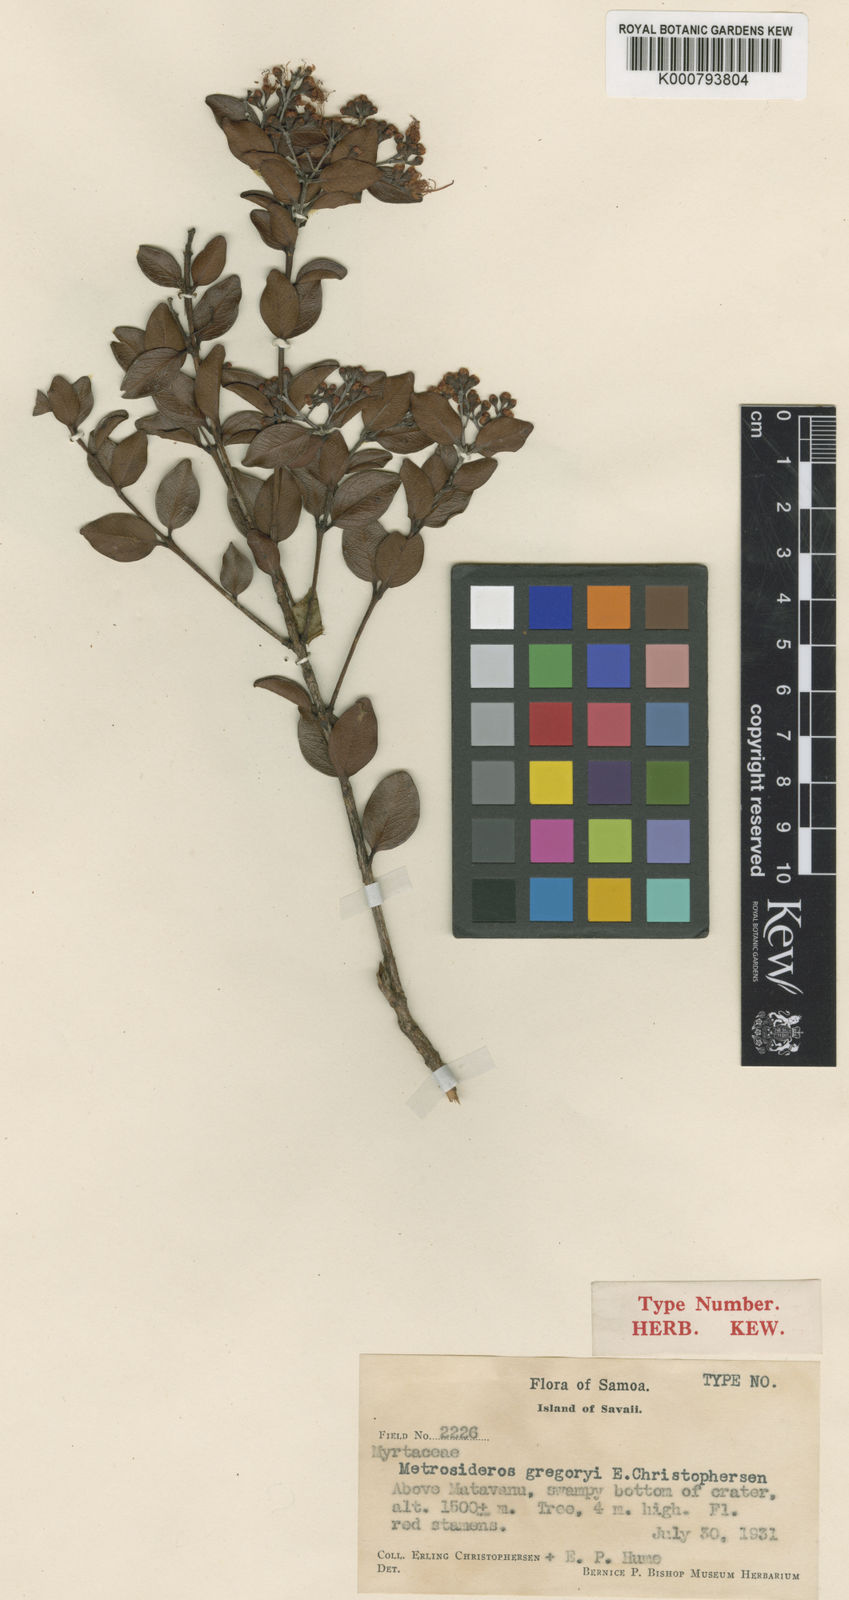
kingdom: Plantae
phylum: Tracheophyta
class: Magnoliopsida
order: Myrtales
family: Myrtaceae
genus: Metrosideros
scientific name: Metrosideros gregoryi
